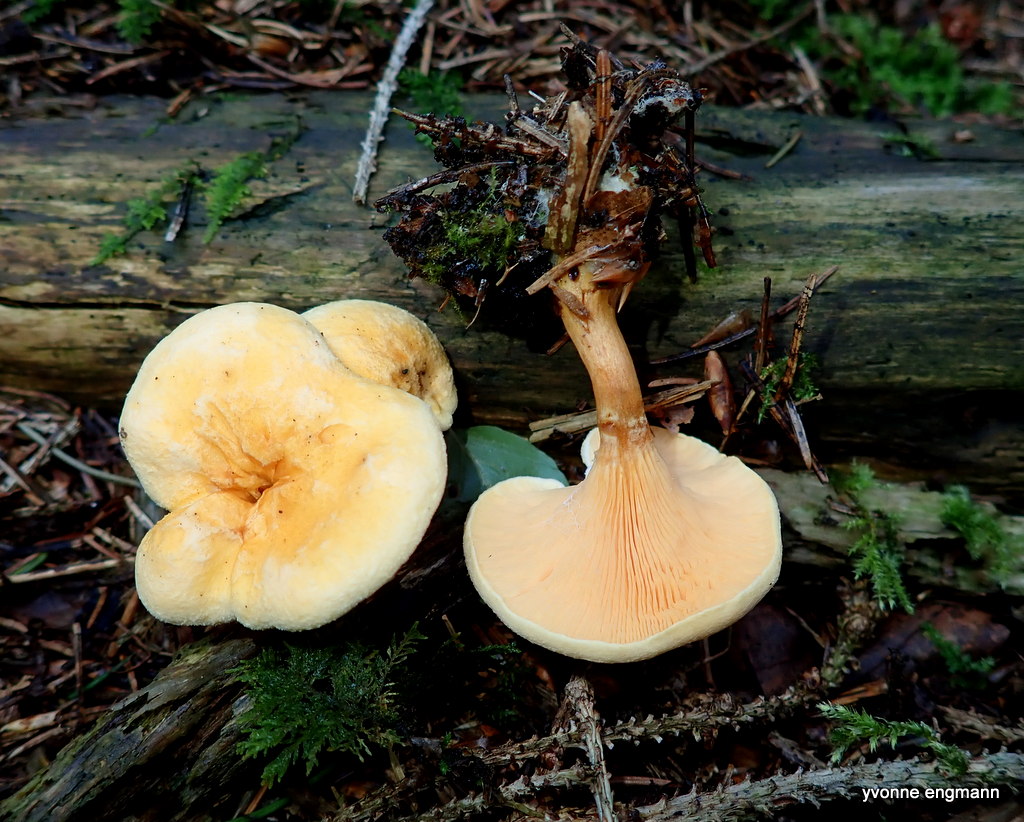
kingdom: Fungi
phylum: Basidiomycota
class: Agaricomycetes
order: Boletales
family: Hygrophoropsidaceae
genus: Hygrophoropsis
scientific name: Hygrophoropsis aurantiaca
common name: almindelig orangekantarel
